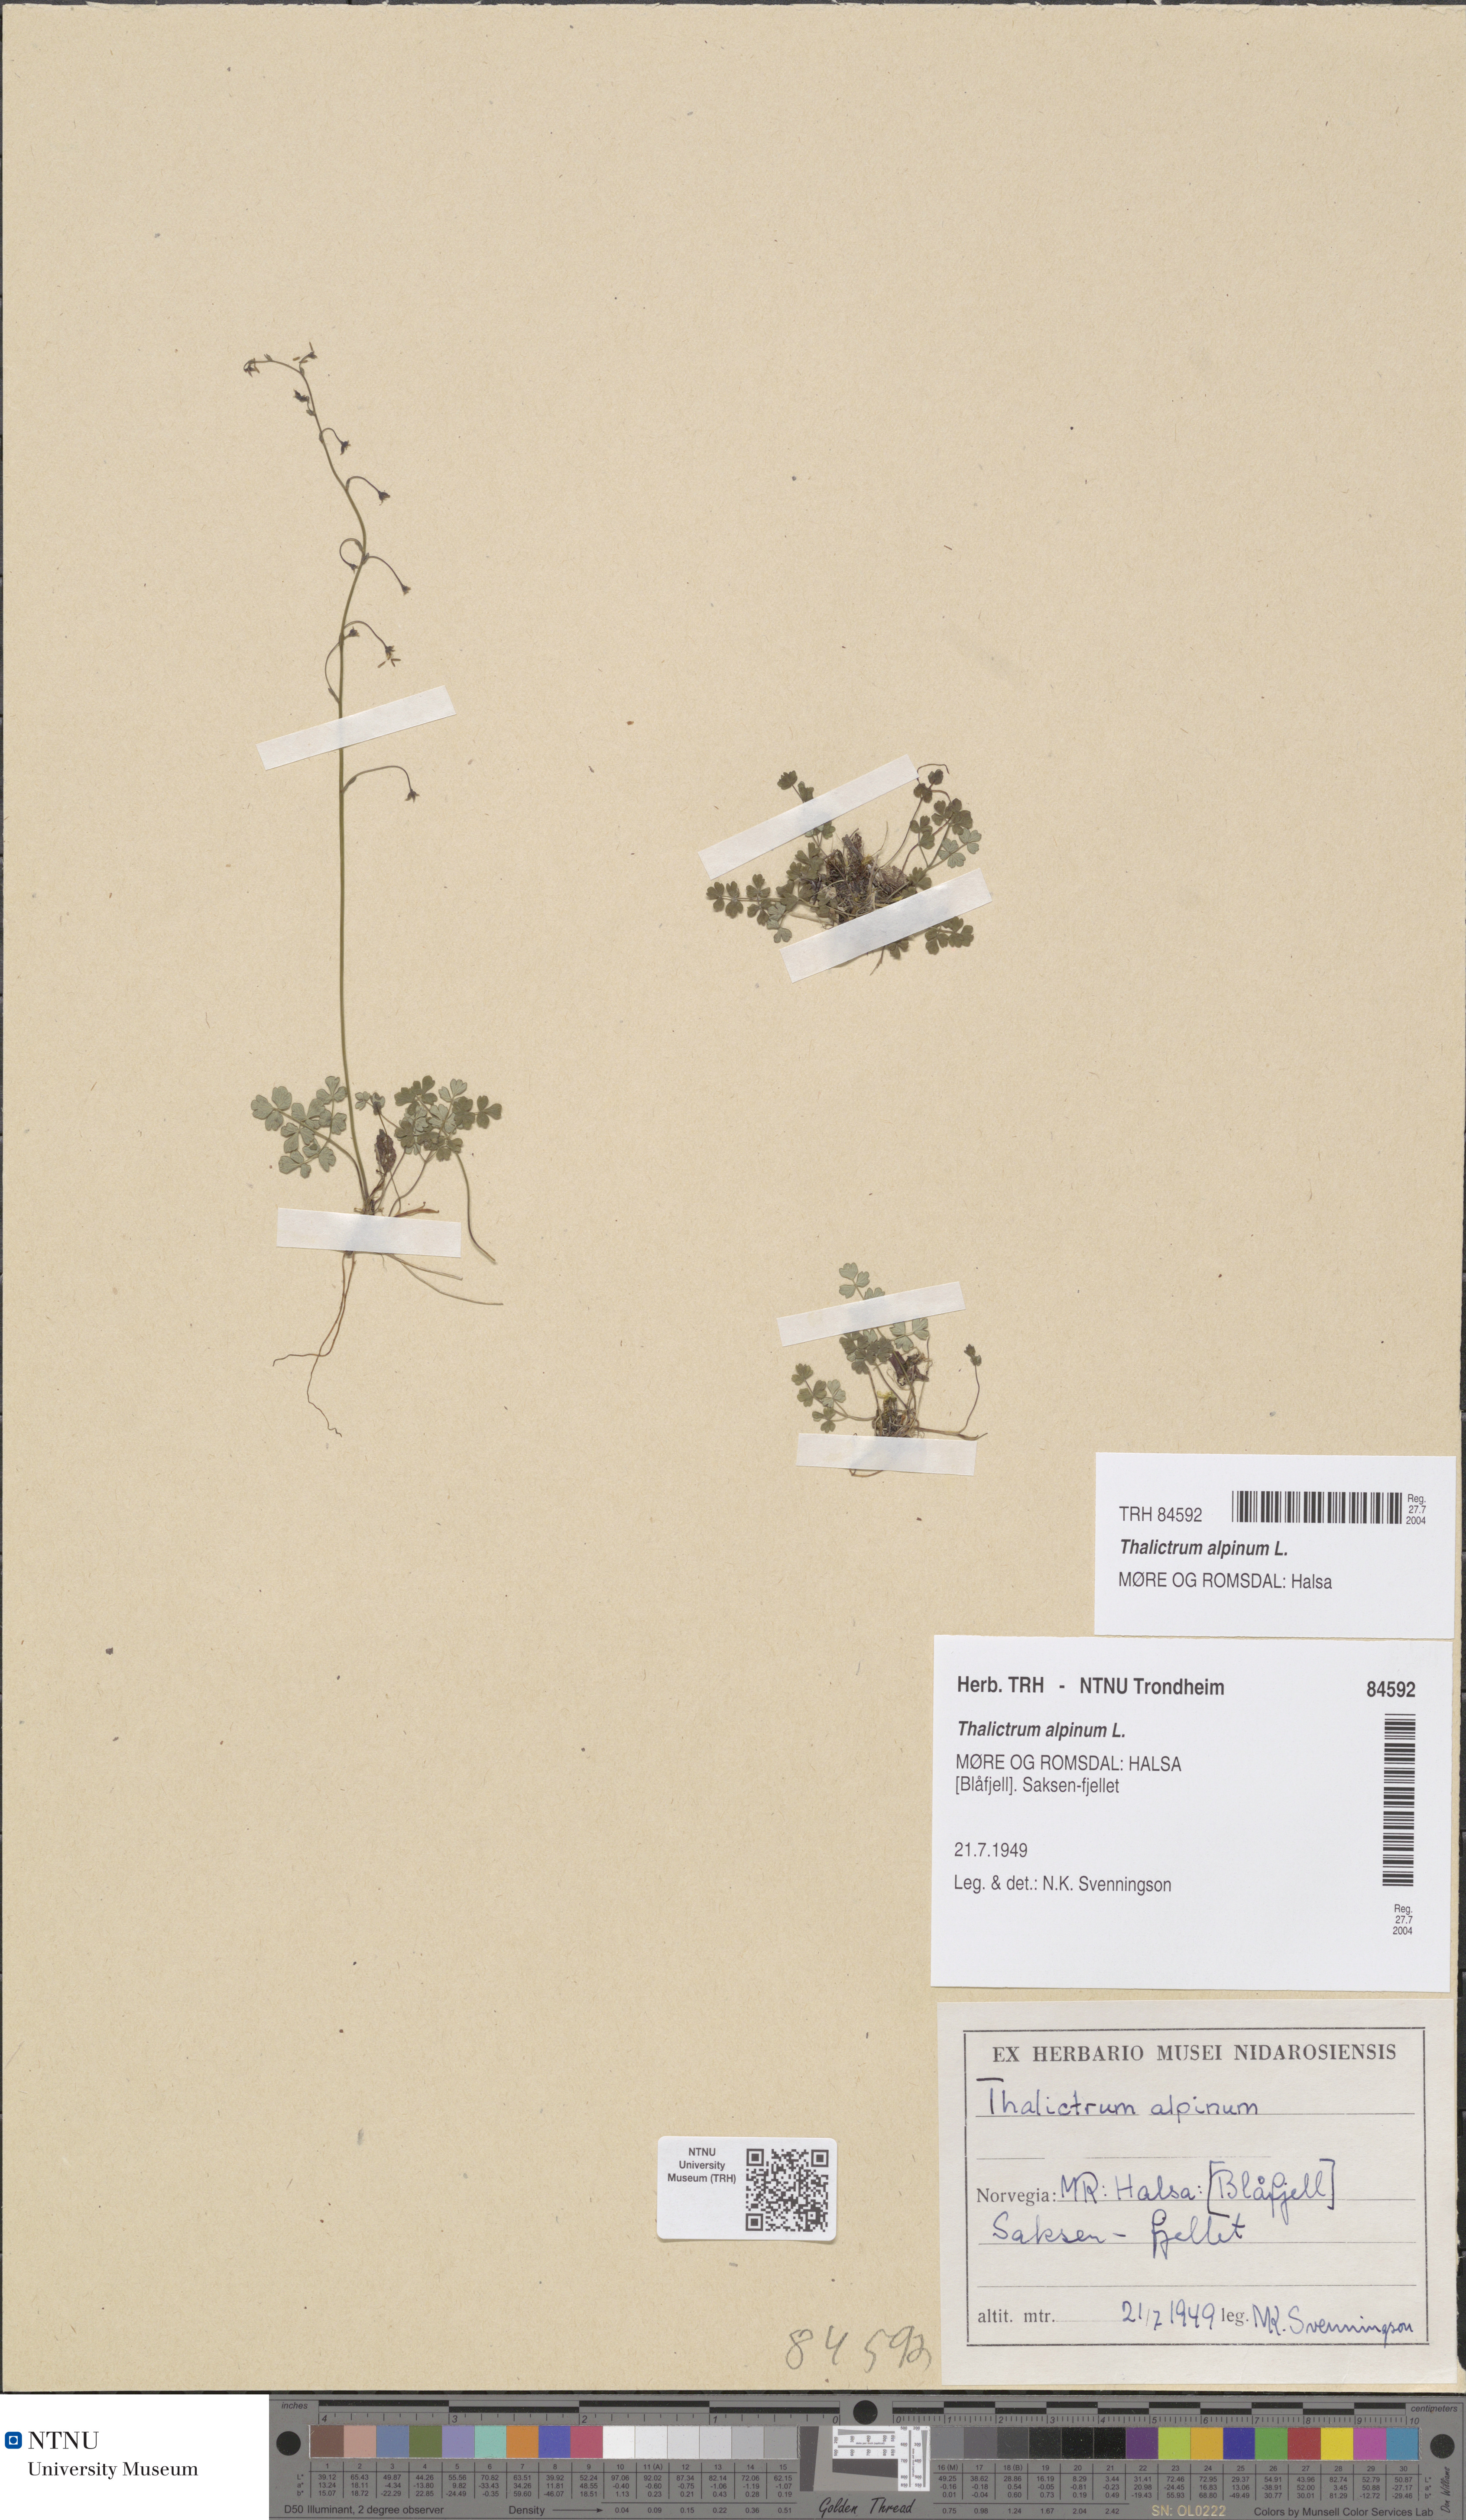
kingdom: Plantae
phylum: Tracheophyta
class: Magnoliopsida
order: Ranunculales
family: Ranunculaceae
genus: Thalictrum
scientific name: Thalictrum alpinum
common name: Alpine meadow-rue
